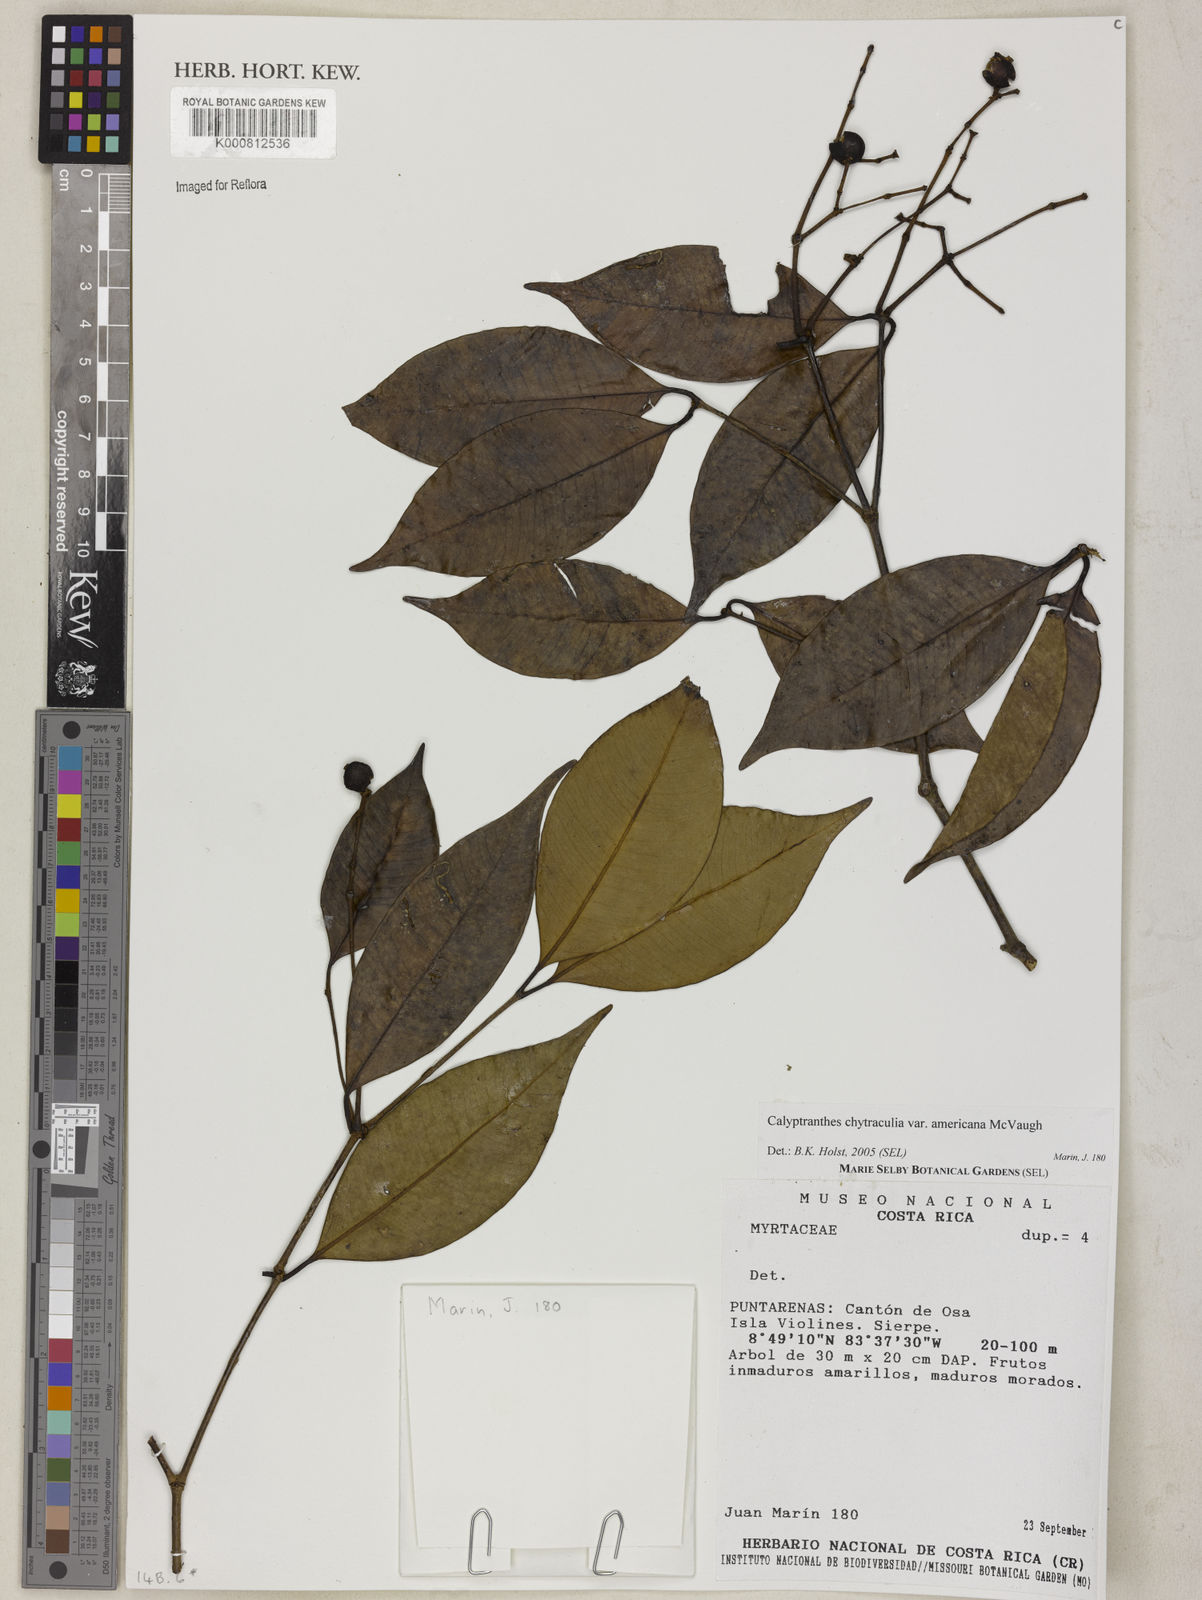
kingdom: Plantae
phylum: Tracheophyta
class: Magnoliopsida
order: Myrtales
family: Myrtaceae
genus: Myrcia
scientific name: Myrcia chytraculia
